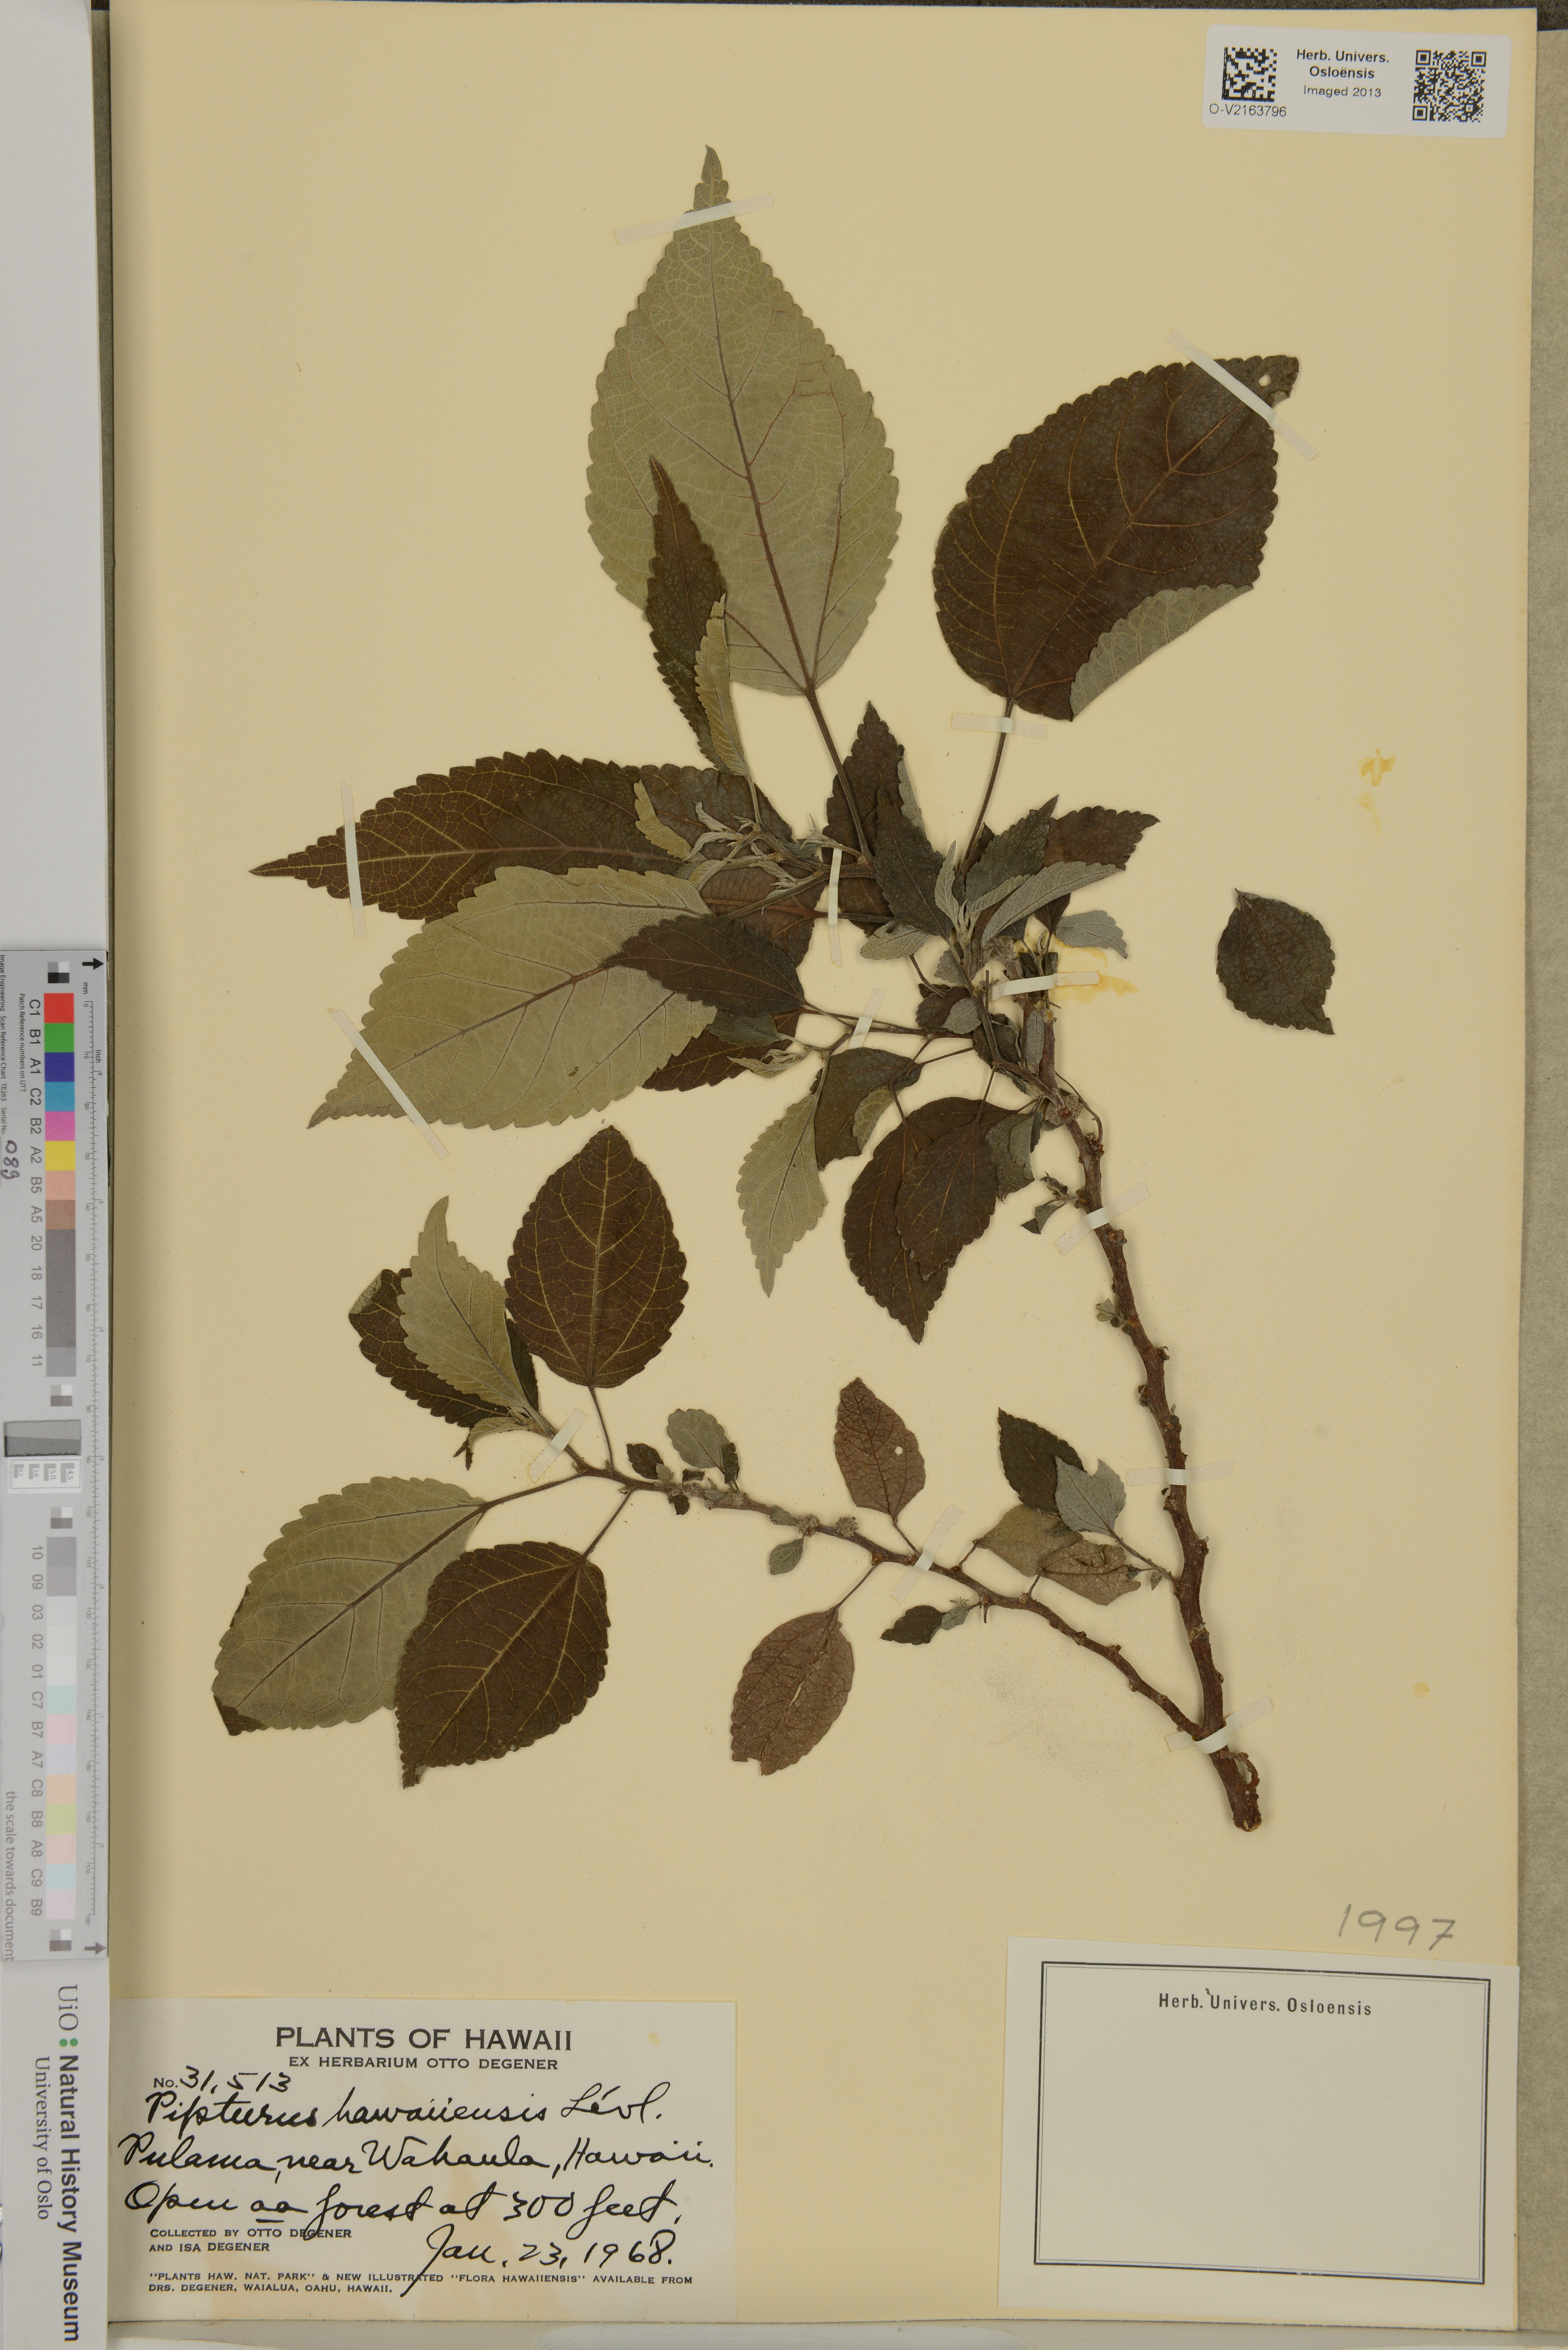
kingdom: Plantae
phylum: Tracheophyta
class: Magnoliopsida
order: Rosales
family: Urticaceae
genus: Pipturus
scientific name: Pipturus albidus
